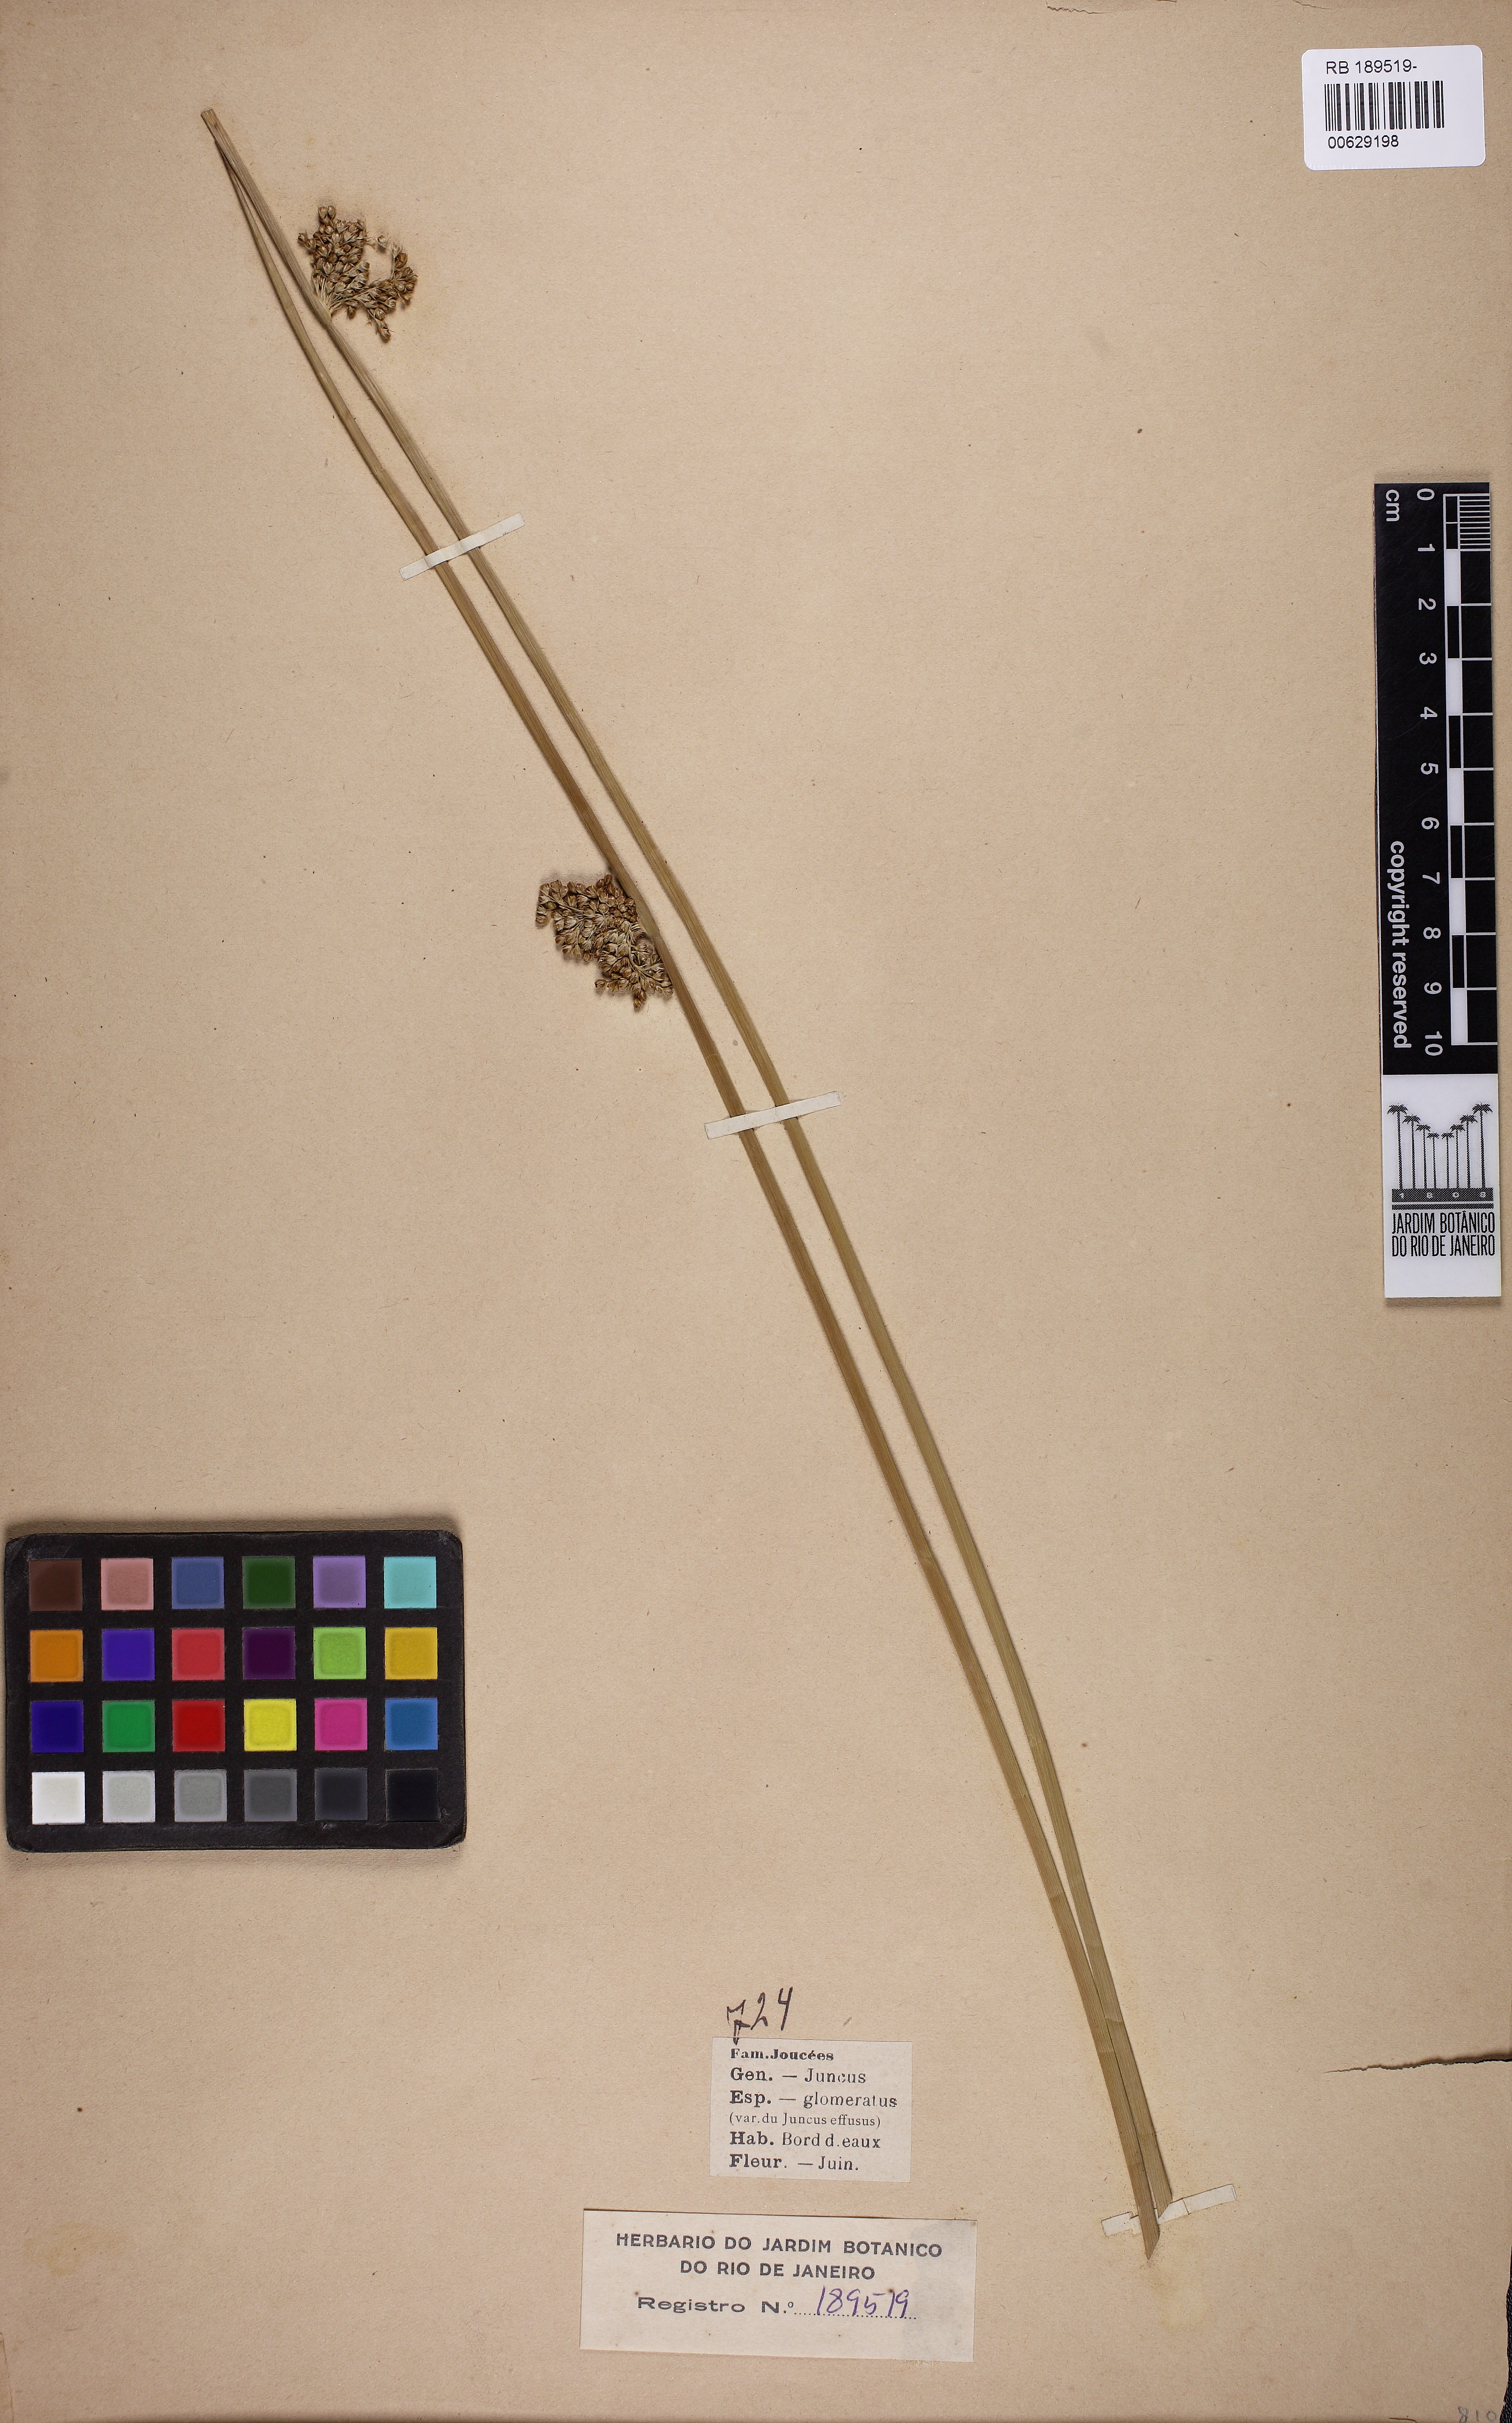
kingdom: Plantae
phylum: Tracheophyta
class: Liliopsida
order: Poales
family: Juncaceae
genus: Juncus
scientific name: Juncus conglomeratus
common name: Compact rush
